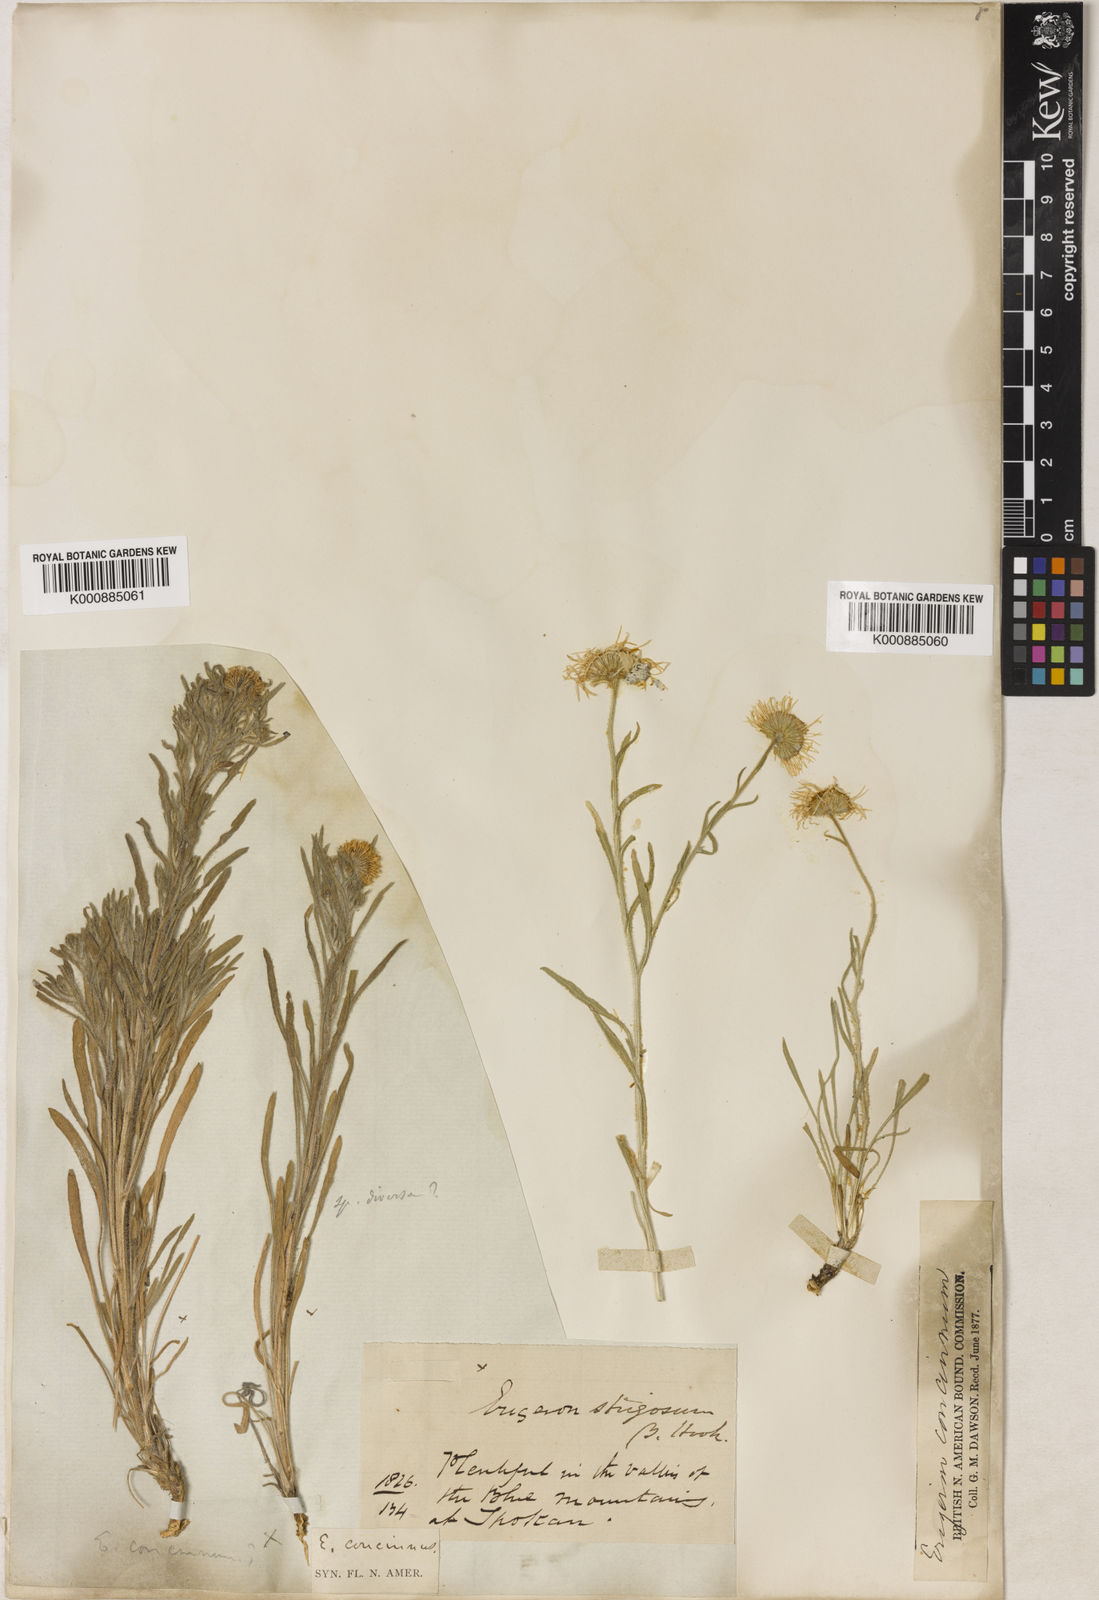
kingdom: Plantae
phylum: Tracheophyta
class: Magnoliopsida
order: Asterales
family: Asteraceae
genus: Erigeron
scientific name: Erigeron concinnus
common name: Navajo fleabane
